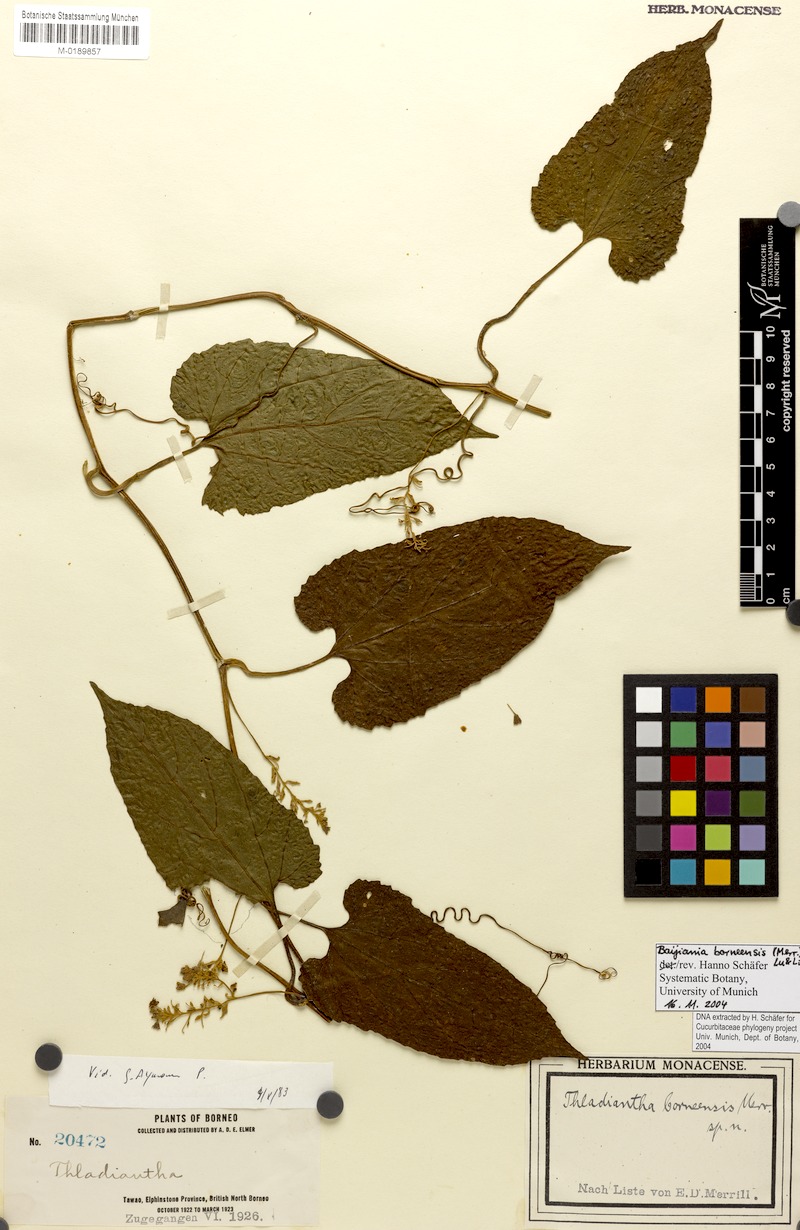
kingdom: Plantae
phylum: Tracheophyta
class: Magnoliopsida
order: Cucurbitales
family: Cucurbitaceae
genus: Baijiania
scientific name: Baijiania borneensis
